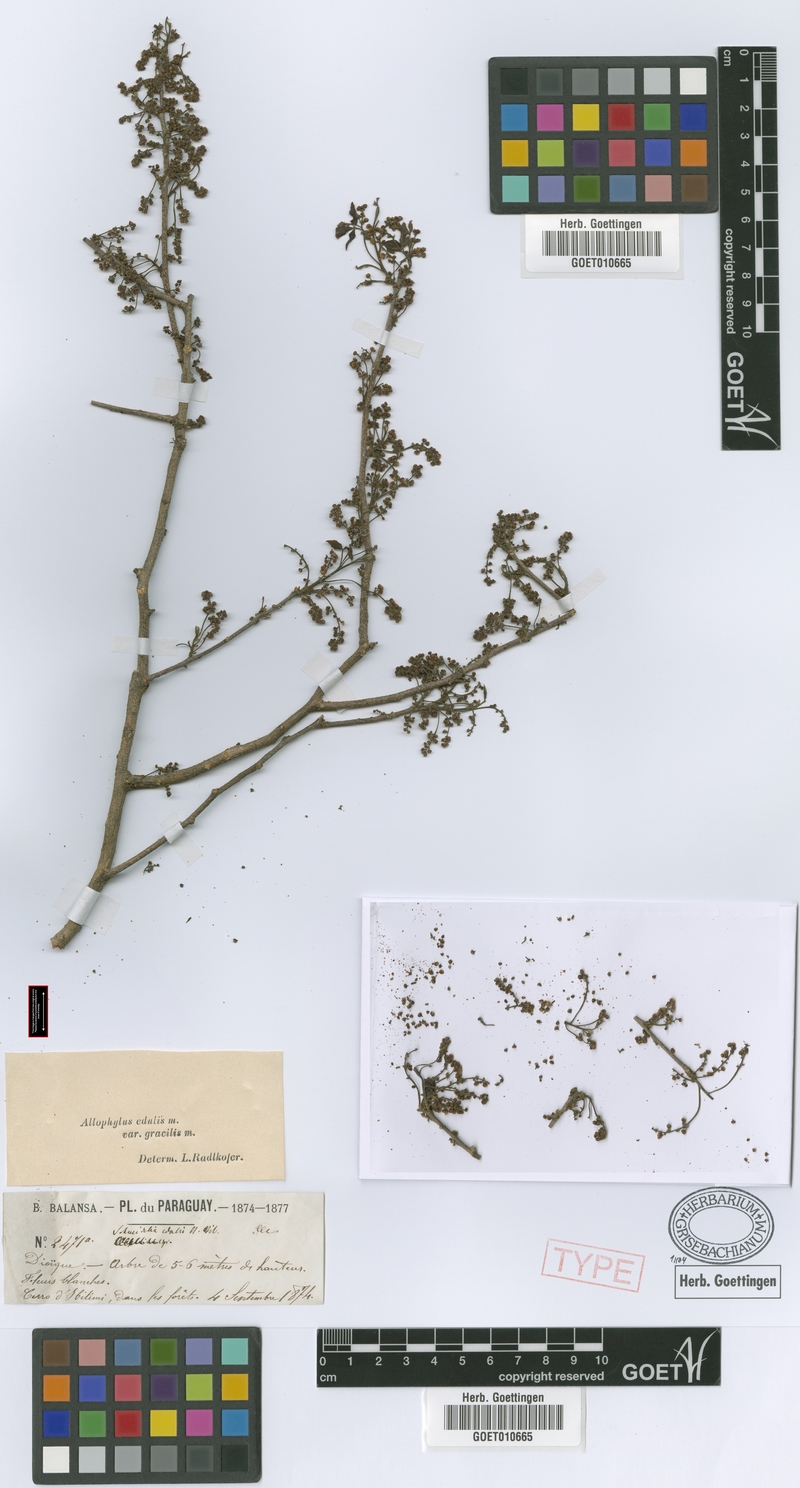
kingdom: Plantae
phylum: Tracheophyta
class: Magnoliopsida
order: Sapindales
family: Sapindaceae
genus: Allophylus
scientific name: Allophylus edulis
